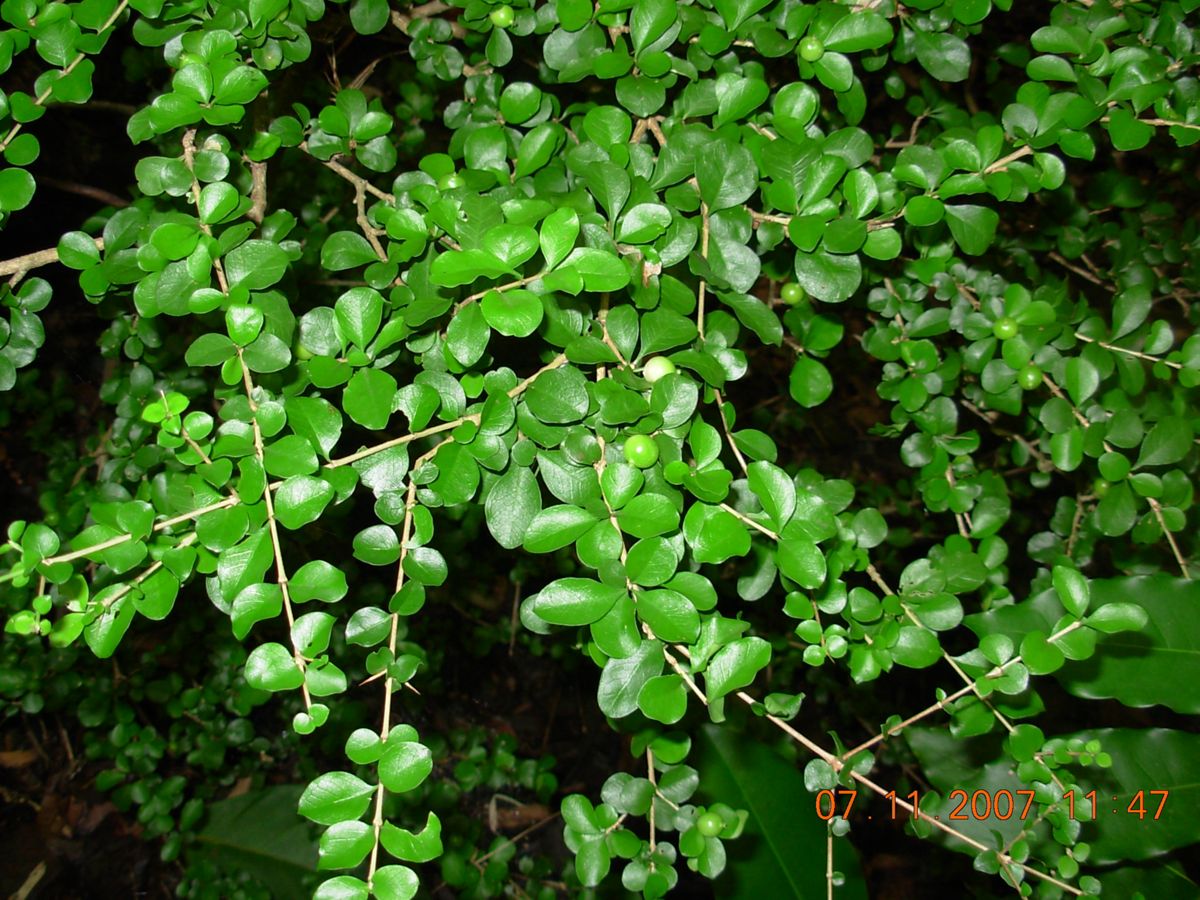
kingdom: Plantae
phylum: Tracheophyta
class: Magnoliopsida
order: Gentianales
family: Rubiaceae
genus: Randia
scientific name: Randia chiapensis
